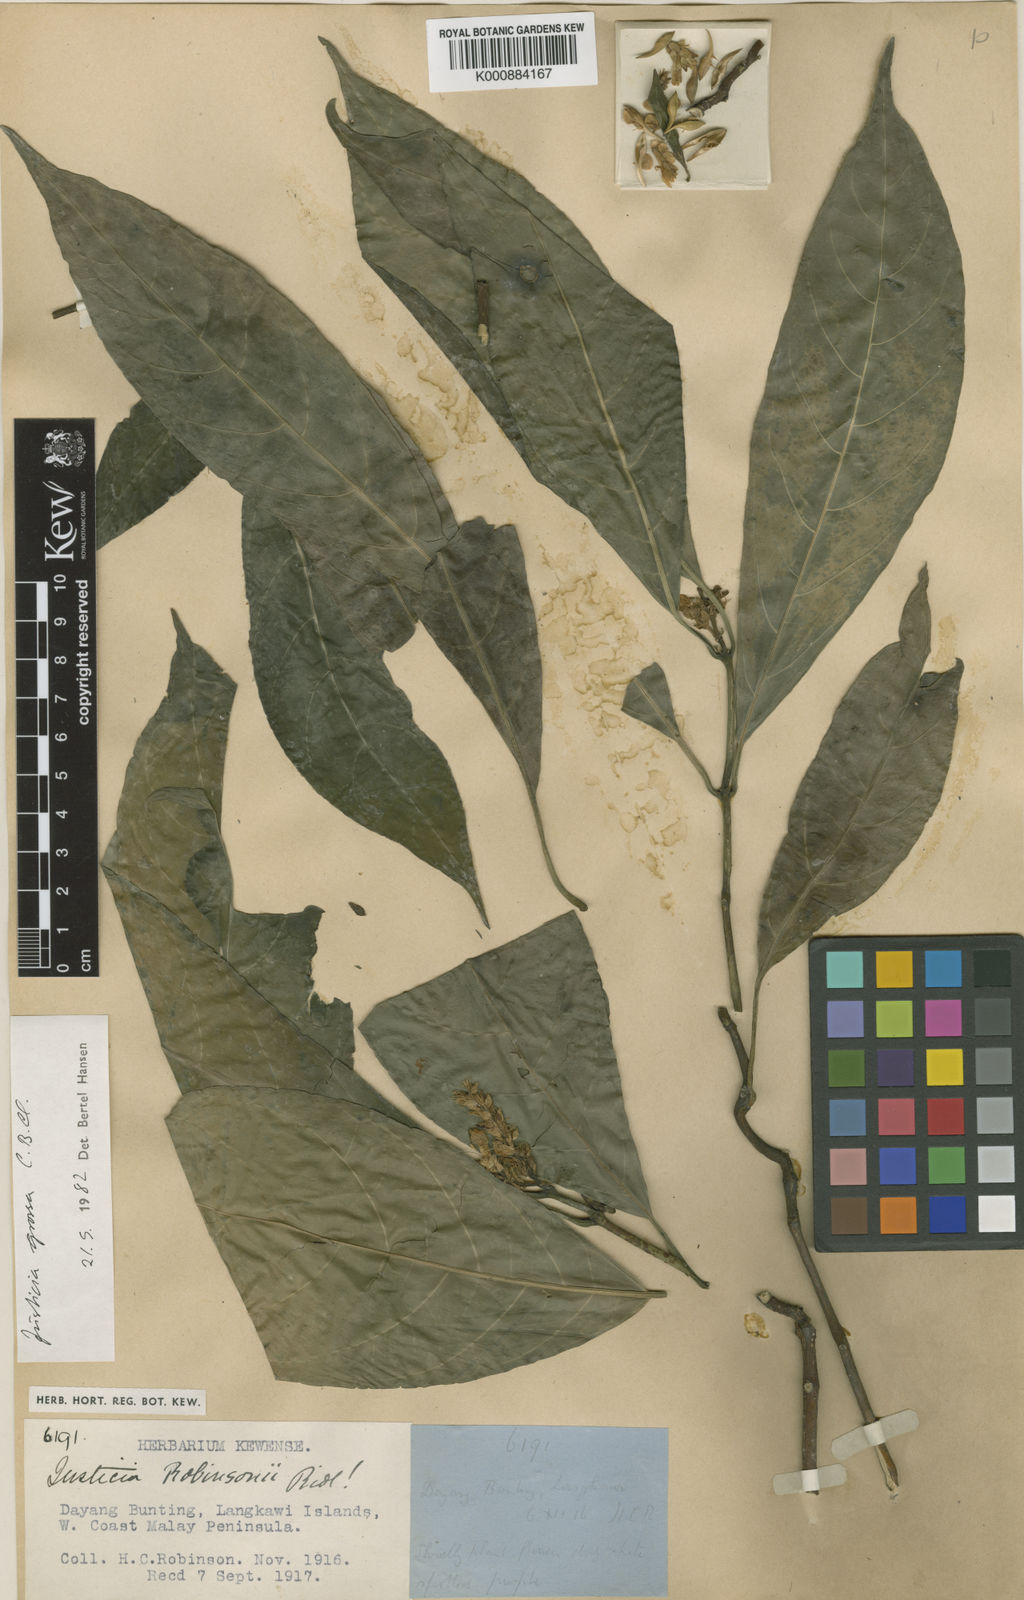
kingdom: Plantae
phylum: Tracheophyta
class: Magnoliopsida
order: Lamiales
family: Acanthaceae
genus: Ecbolium
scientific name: Ecbolium grossum
